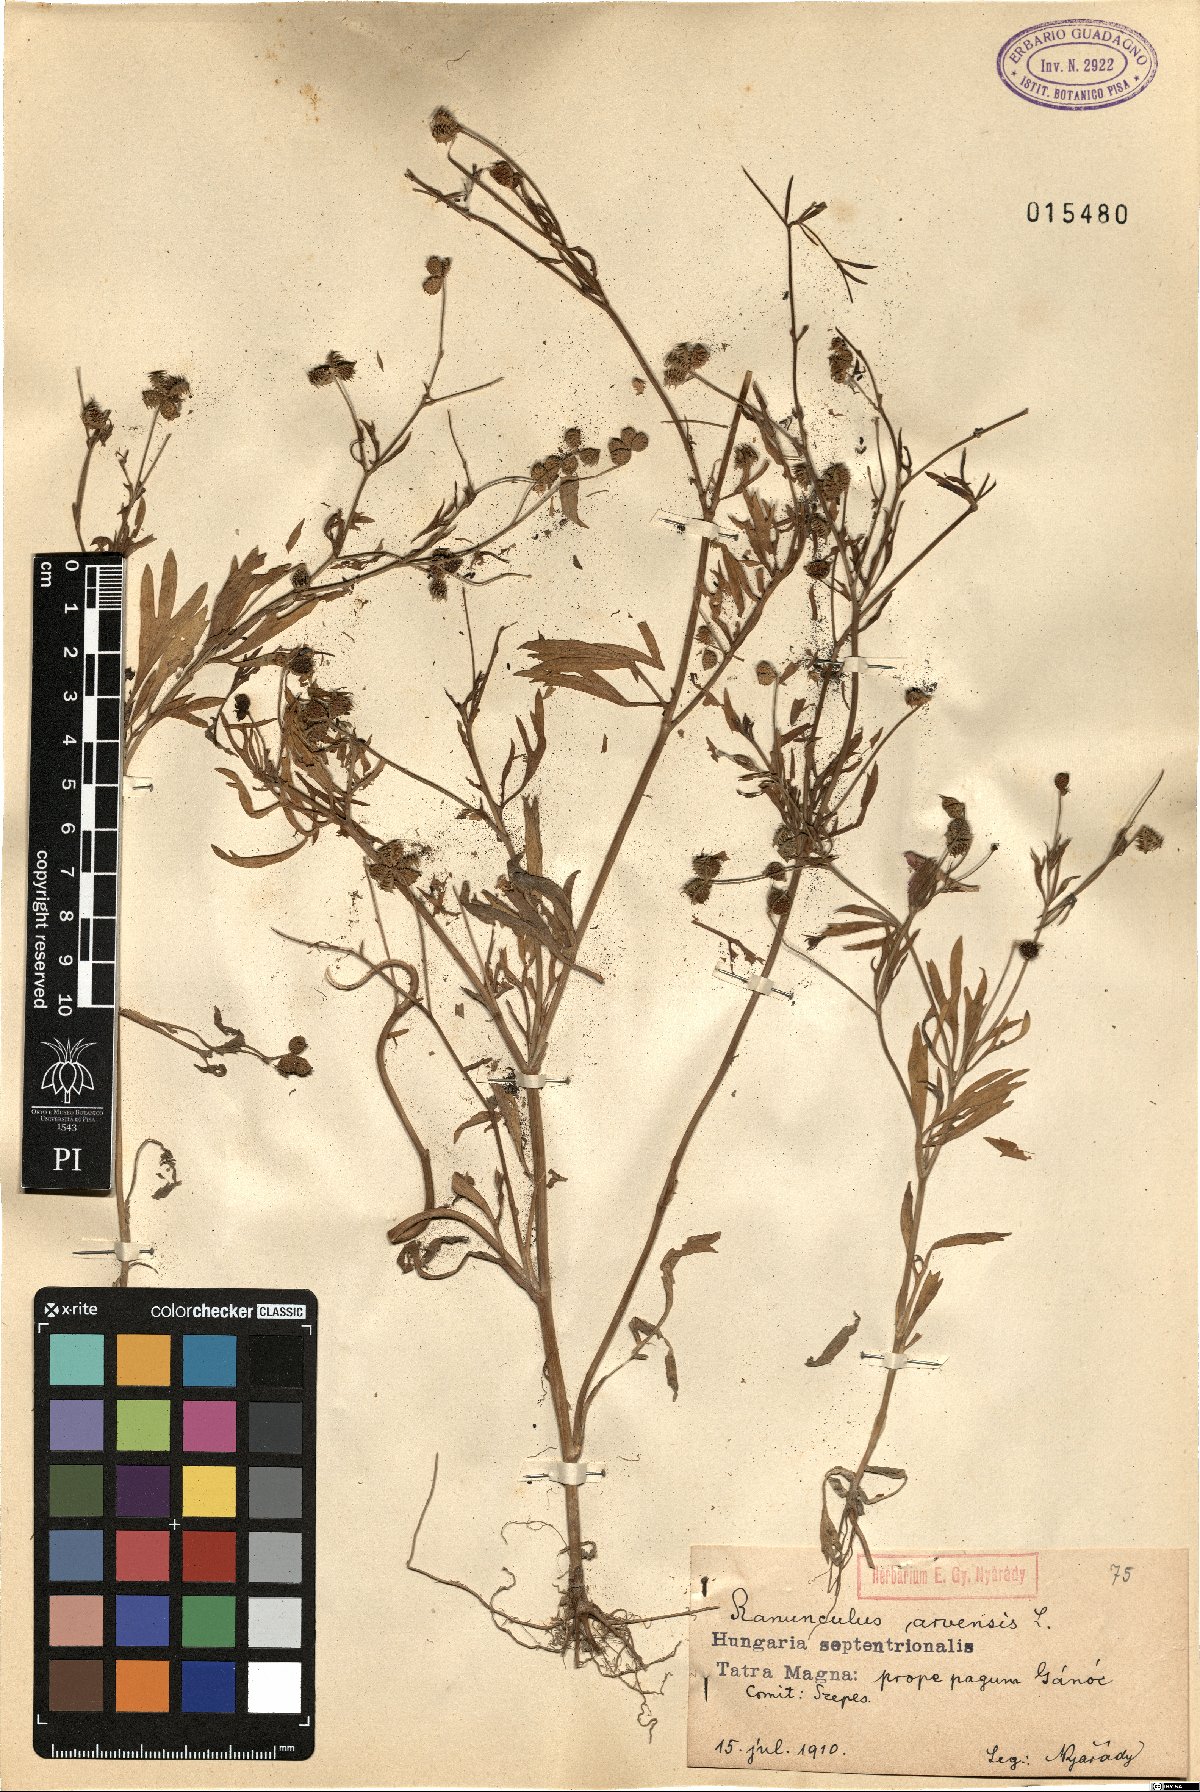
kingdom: Plantae
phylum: Tracheophyta
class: Magnoliopsida
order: Ranunculales
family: Ranunculaceae
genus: Ranunculus
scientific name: Ranunculus arvensis
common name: Corn buttercup
